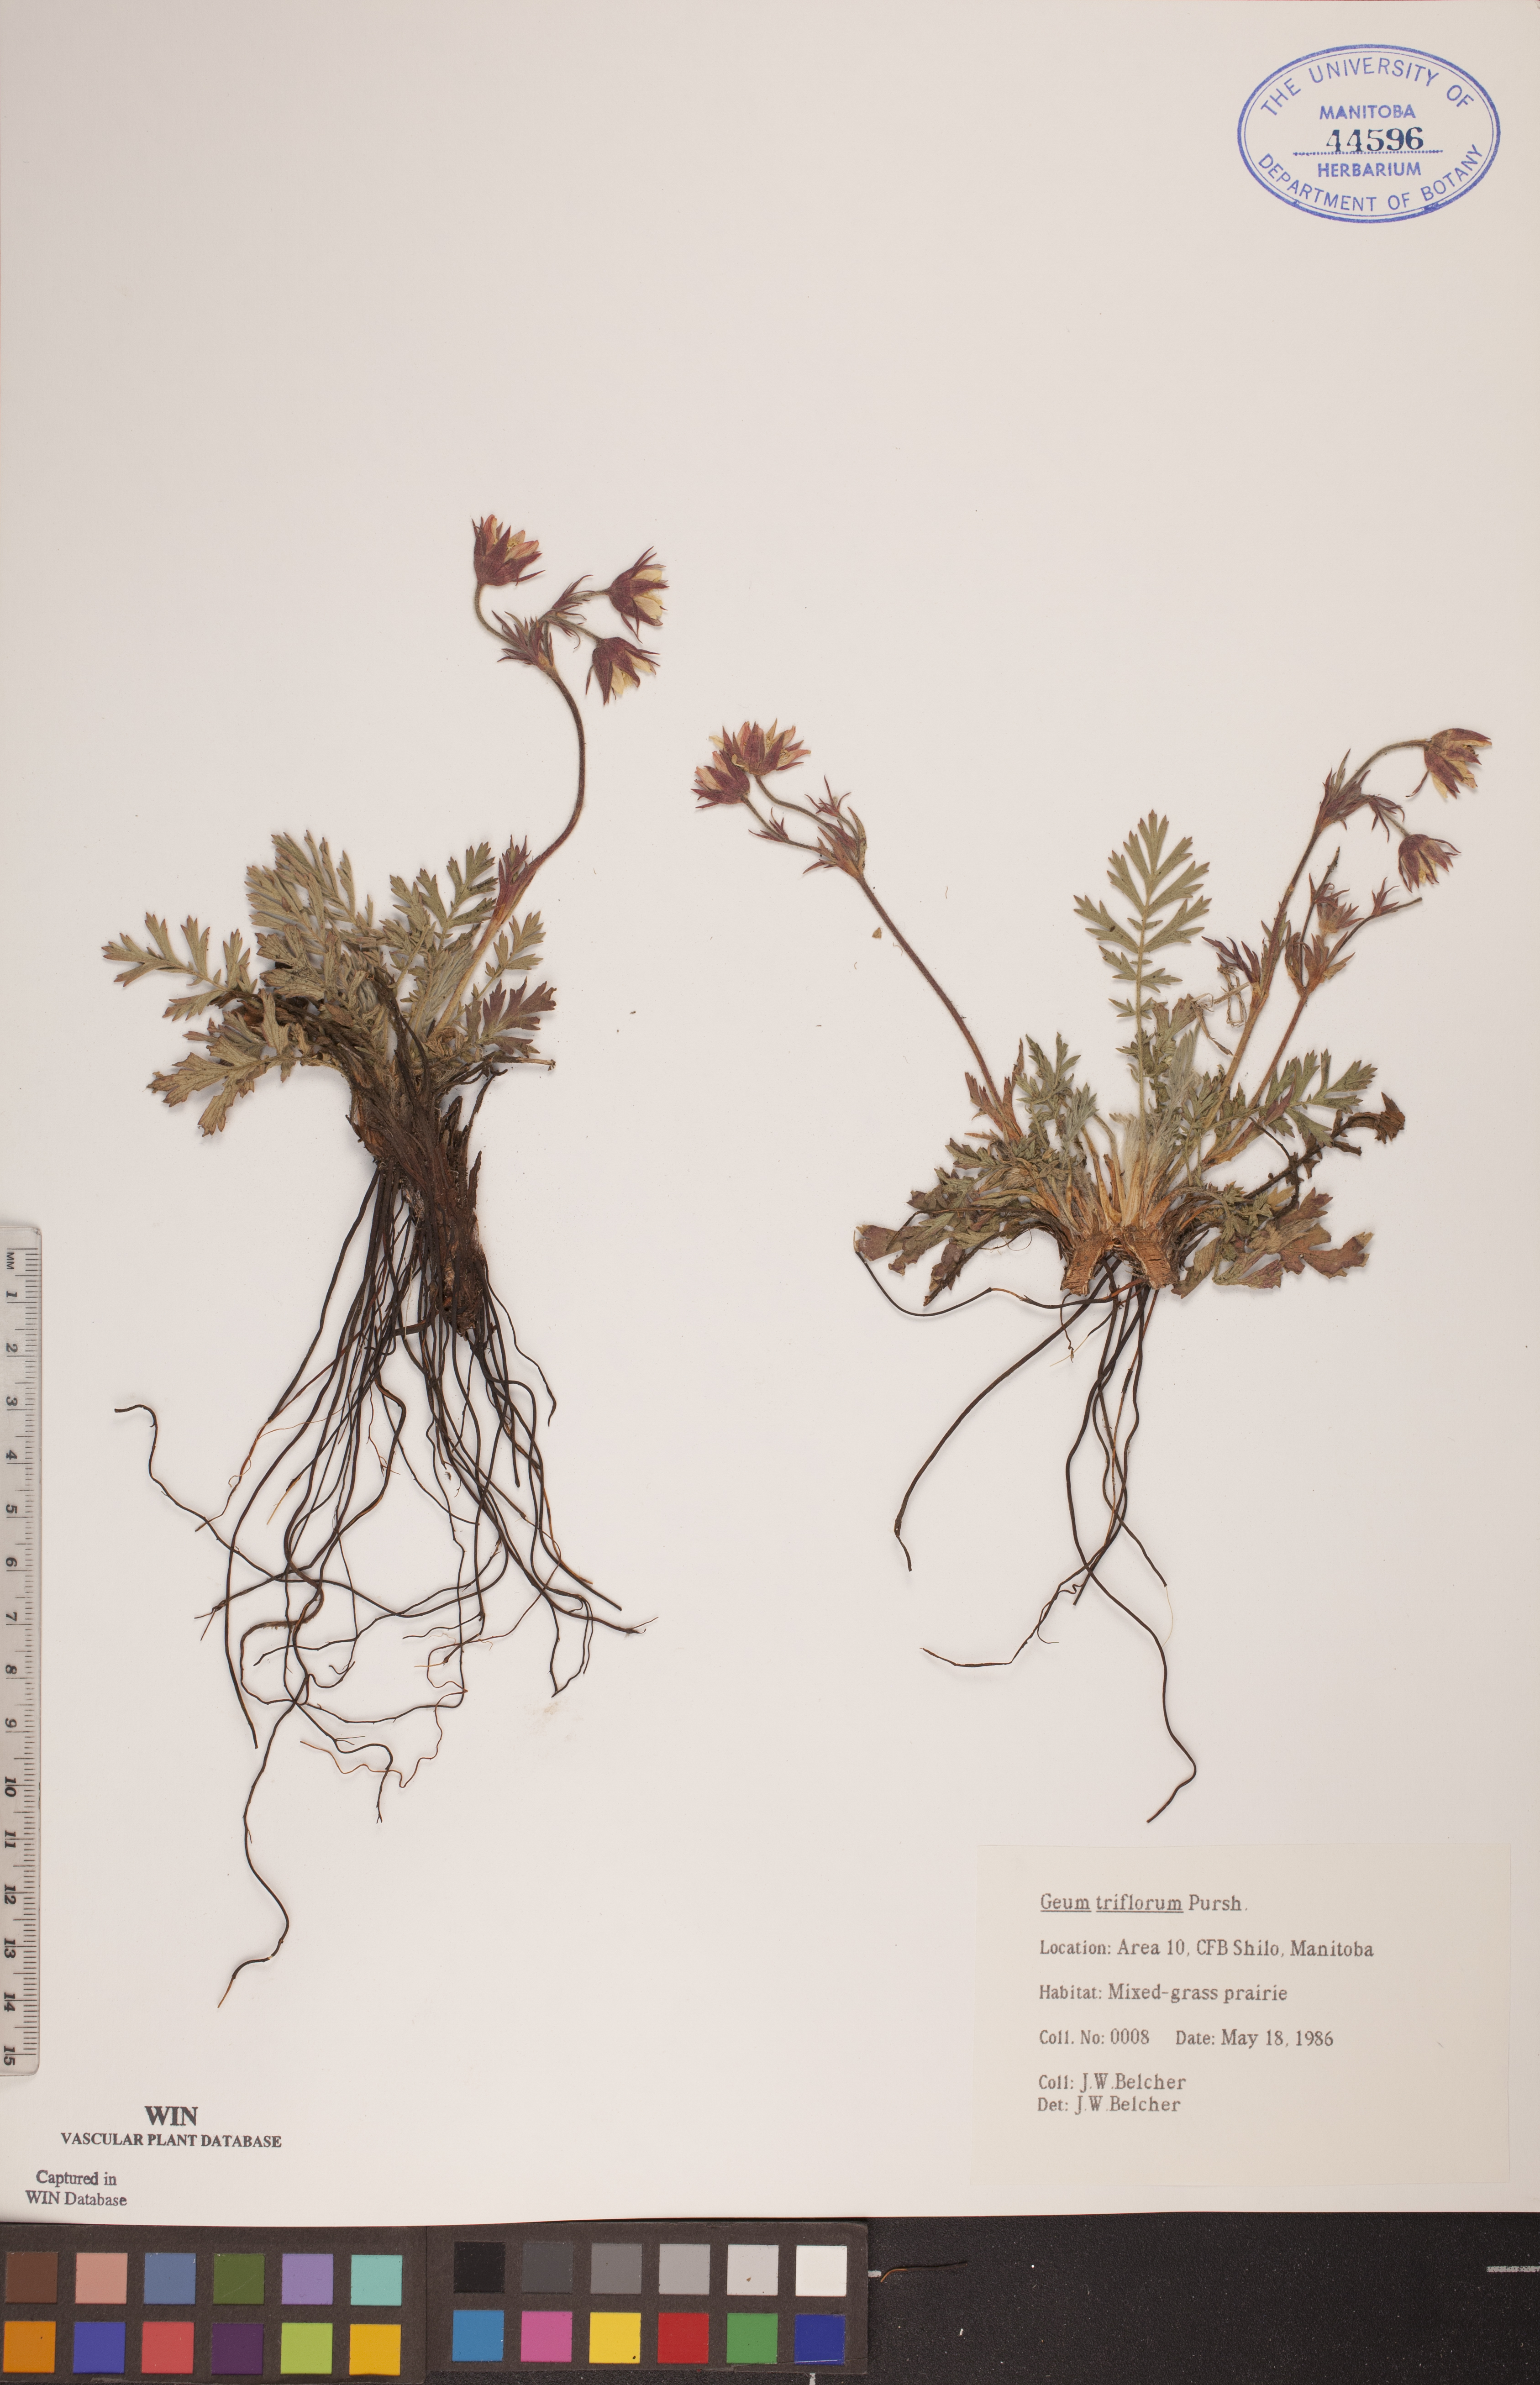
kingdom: Plantae
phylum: Tracheophyta
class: Magnoliopsida
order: Rosales
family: Rosaceae
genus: Geum
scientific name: Geum triflorum
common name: Old man's whiskers
